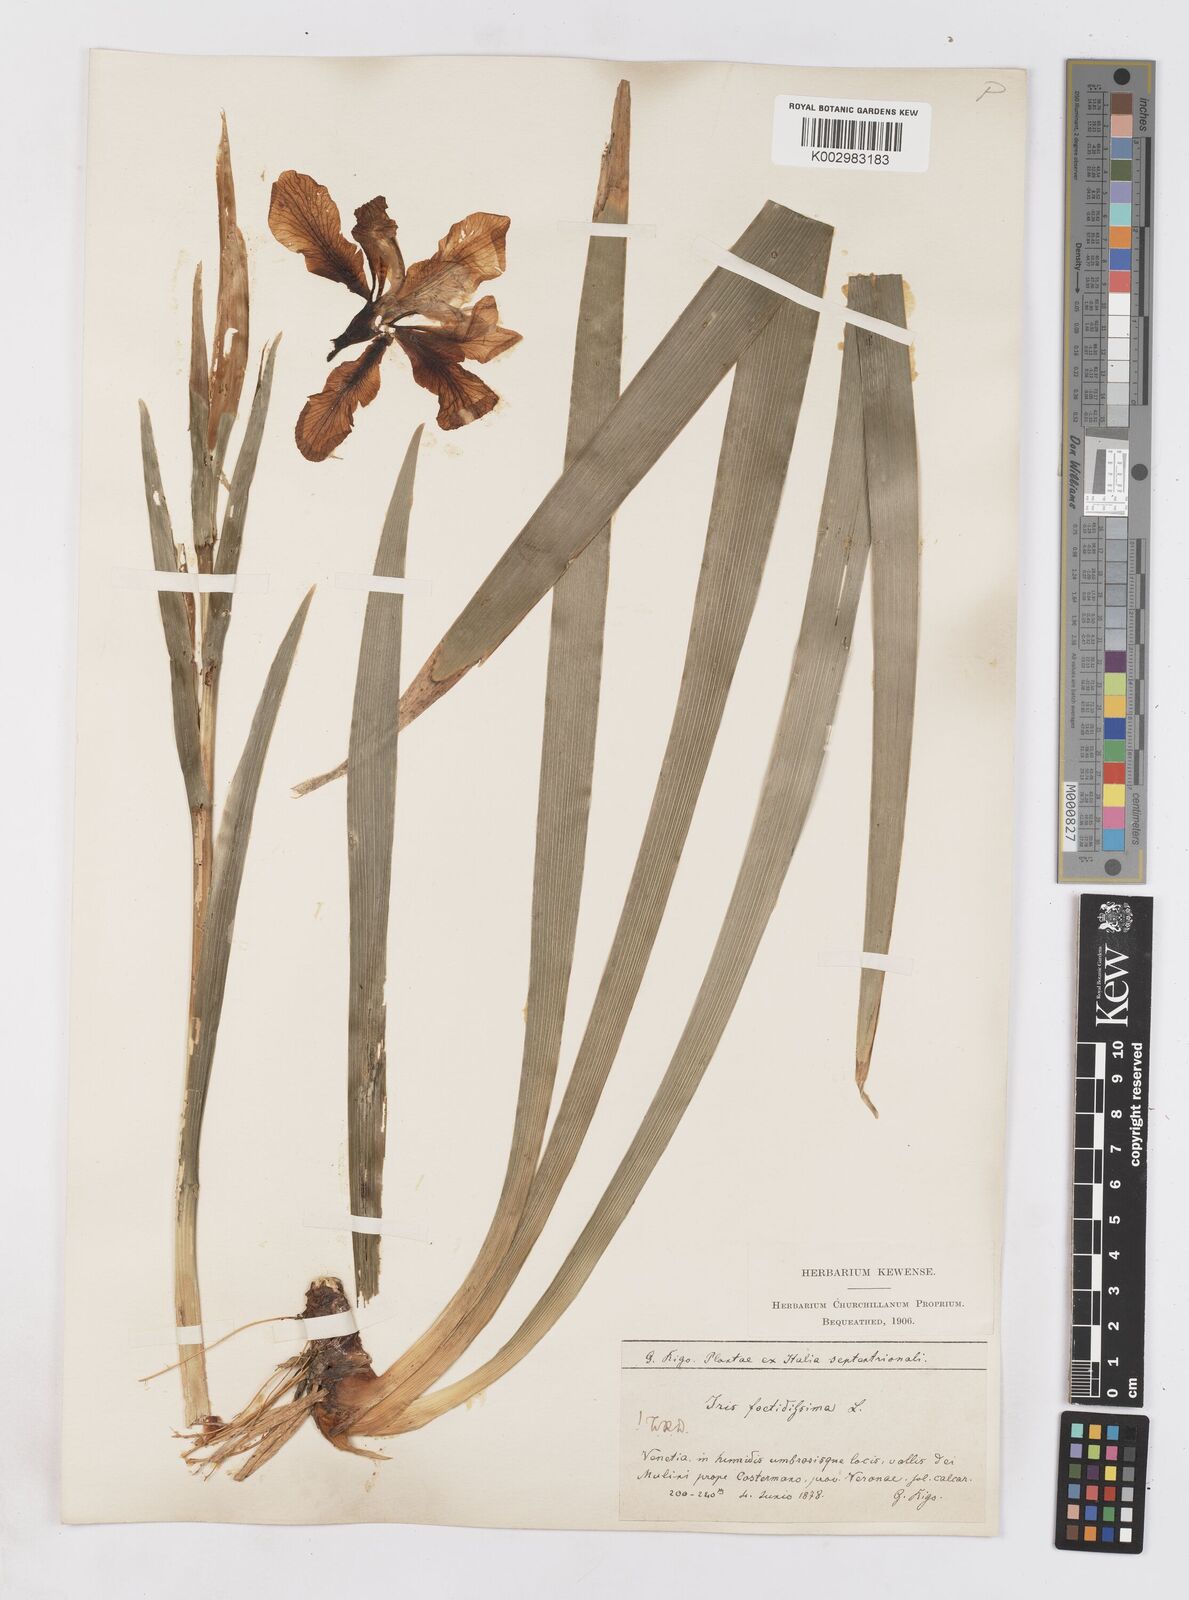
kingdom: Plantae
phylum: Tracheophyta
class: Liliopsida
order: Asparagales
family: Iridaceae
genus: Iris
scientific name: Iris foetidissima
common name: Stinking iris
